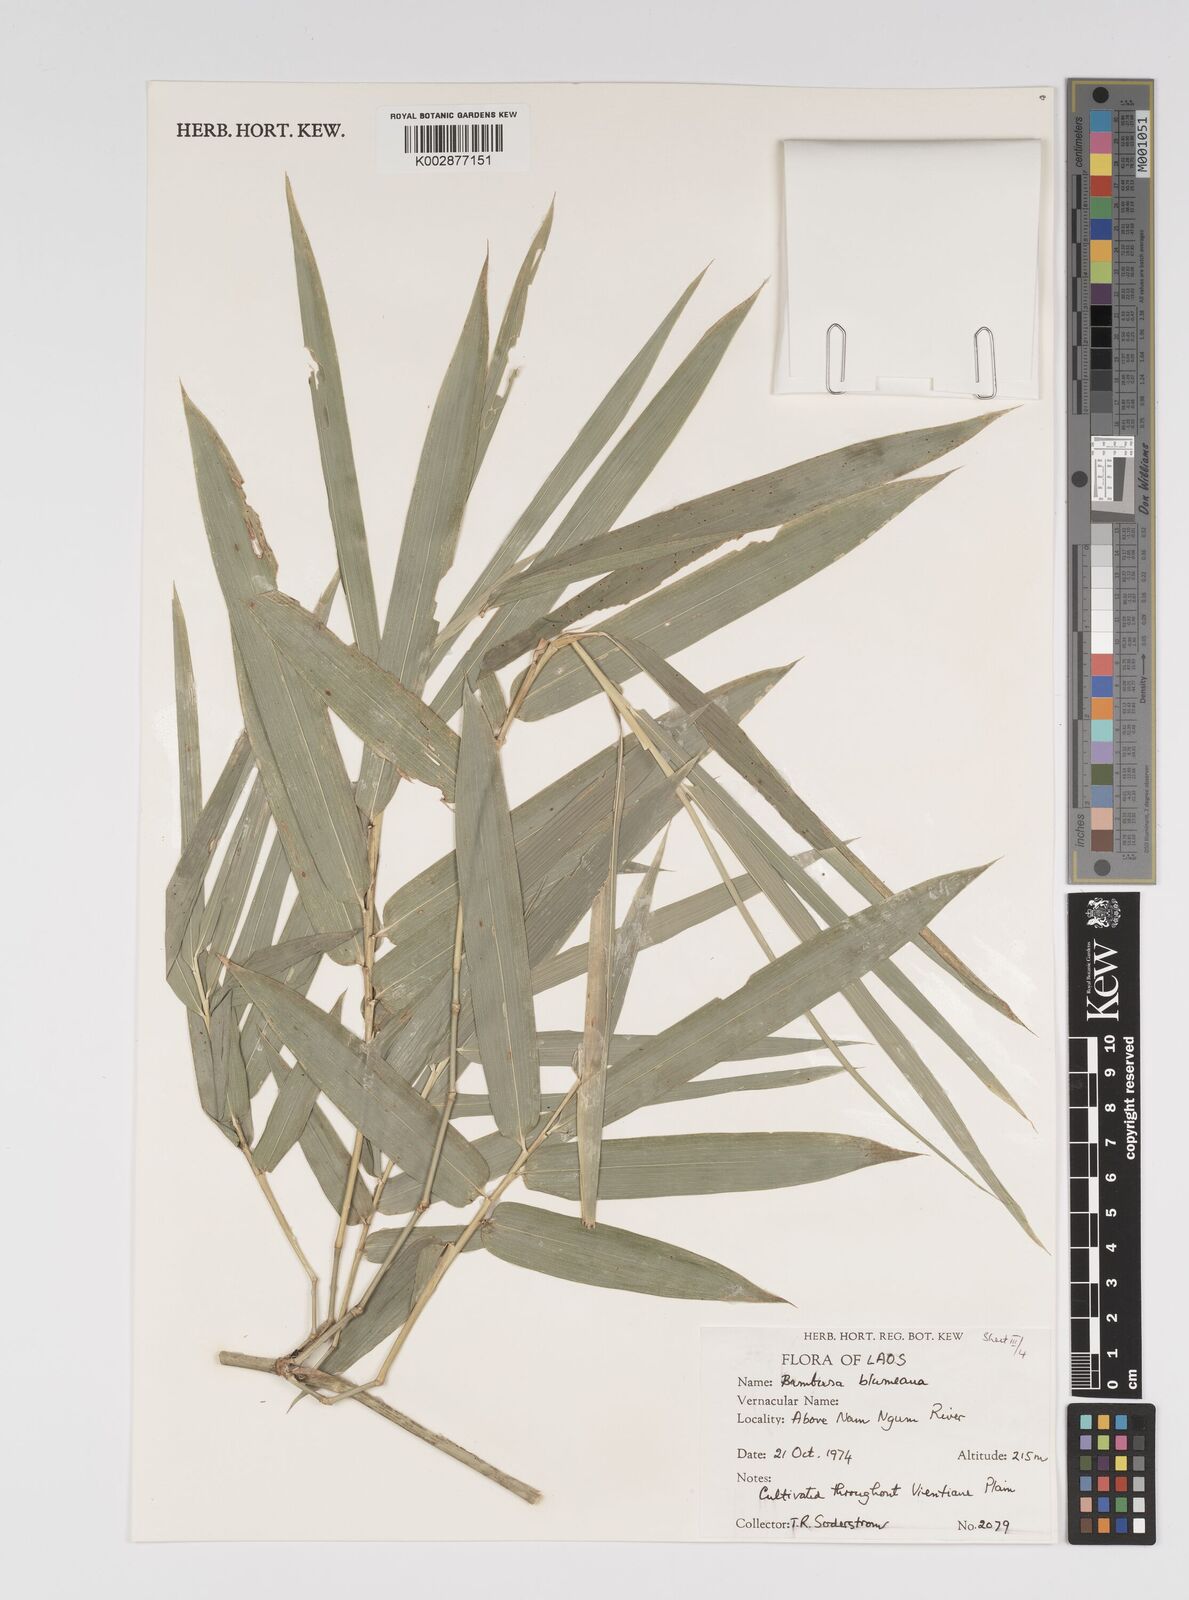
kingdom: Plantae
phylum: Tracheophyta
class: Liliopsida
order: Poales
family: Poaceae
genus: Bambusa
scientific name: Bambusa
